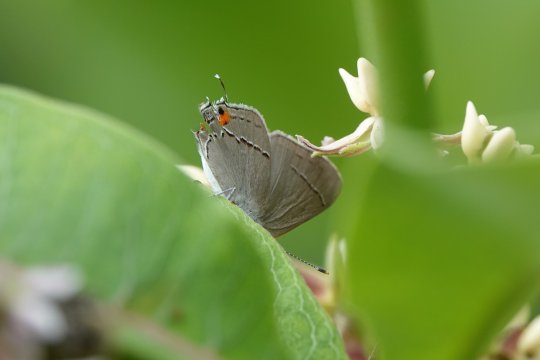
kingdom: Animalia
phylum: Arthropoda
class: Insecta
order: Lepidoptera
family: Lycaenidae
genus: Strymon
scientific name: Strymon melinus
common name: Gray Hairstreak
